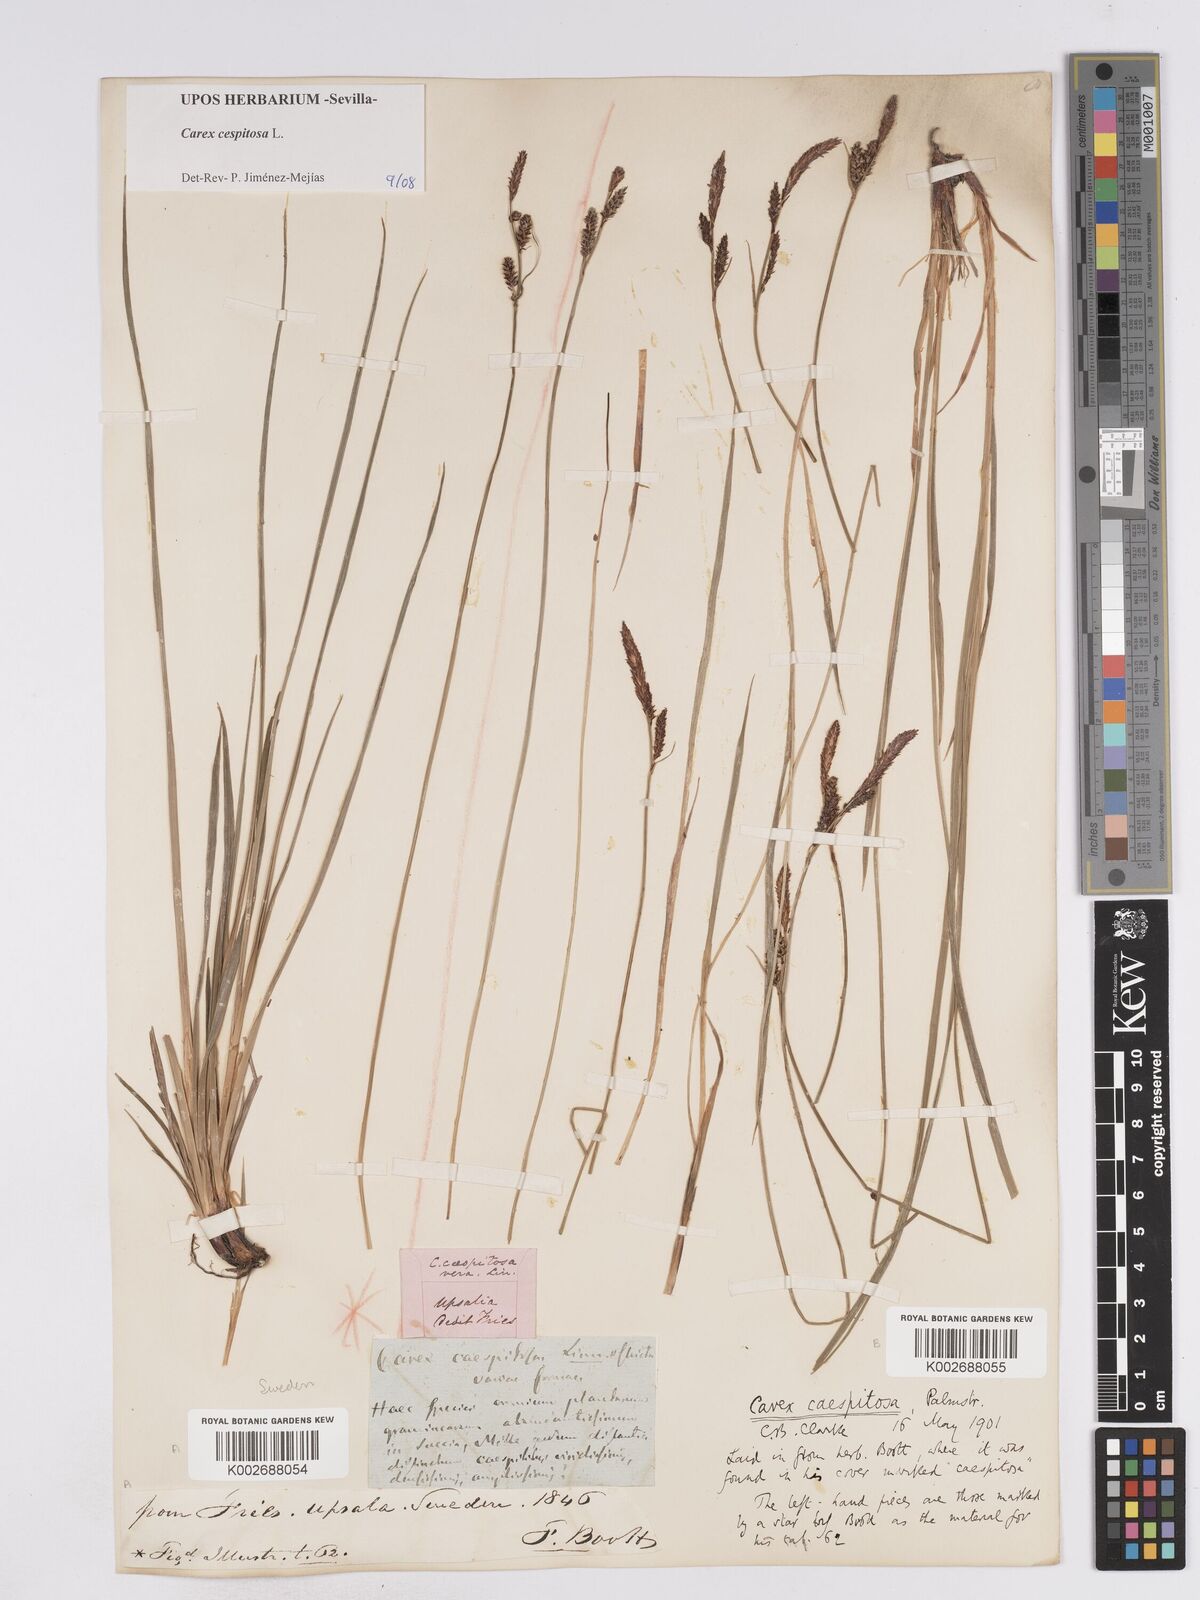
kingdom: Plantae
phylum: Tracheophyta
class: Liliopsida
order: Poales
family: Cyperaceae
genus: Carex
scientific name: Carex
